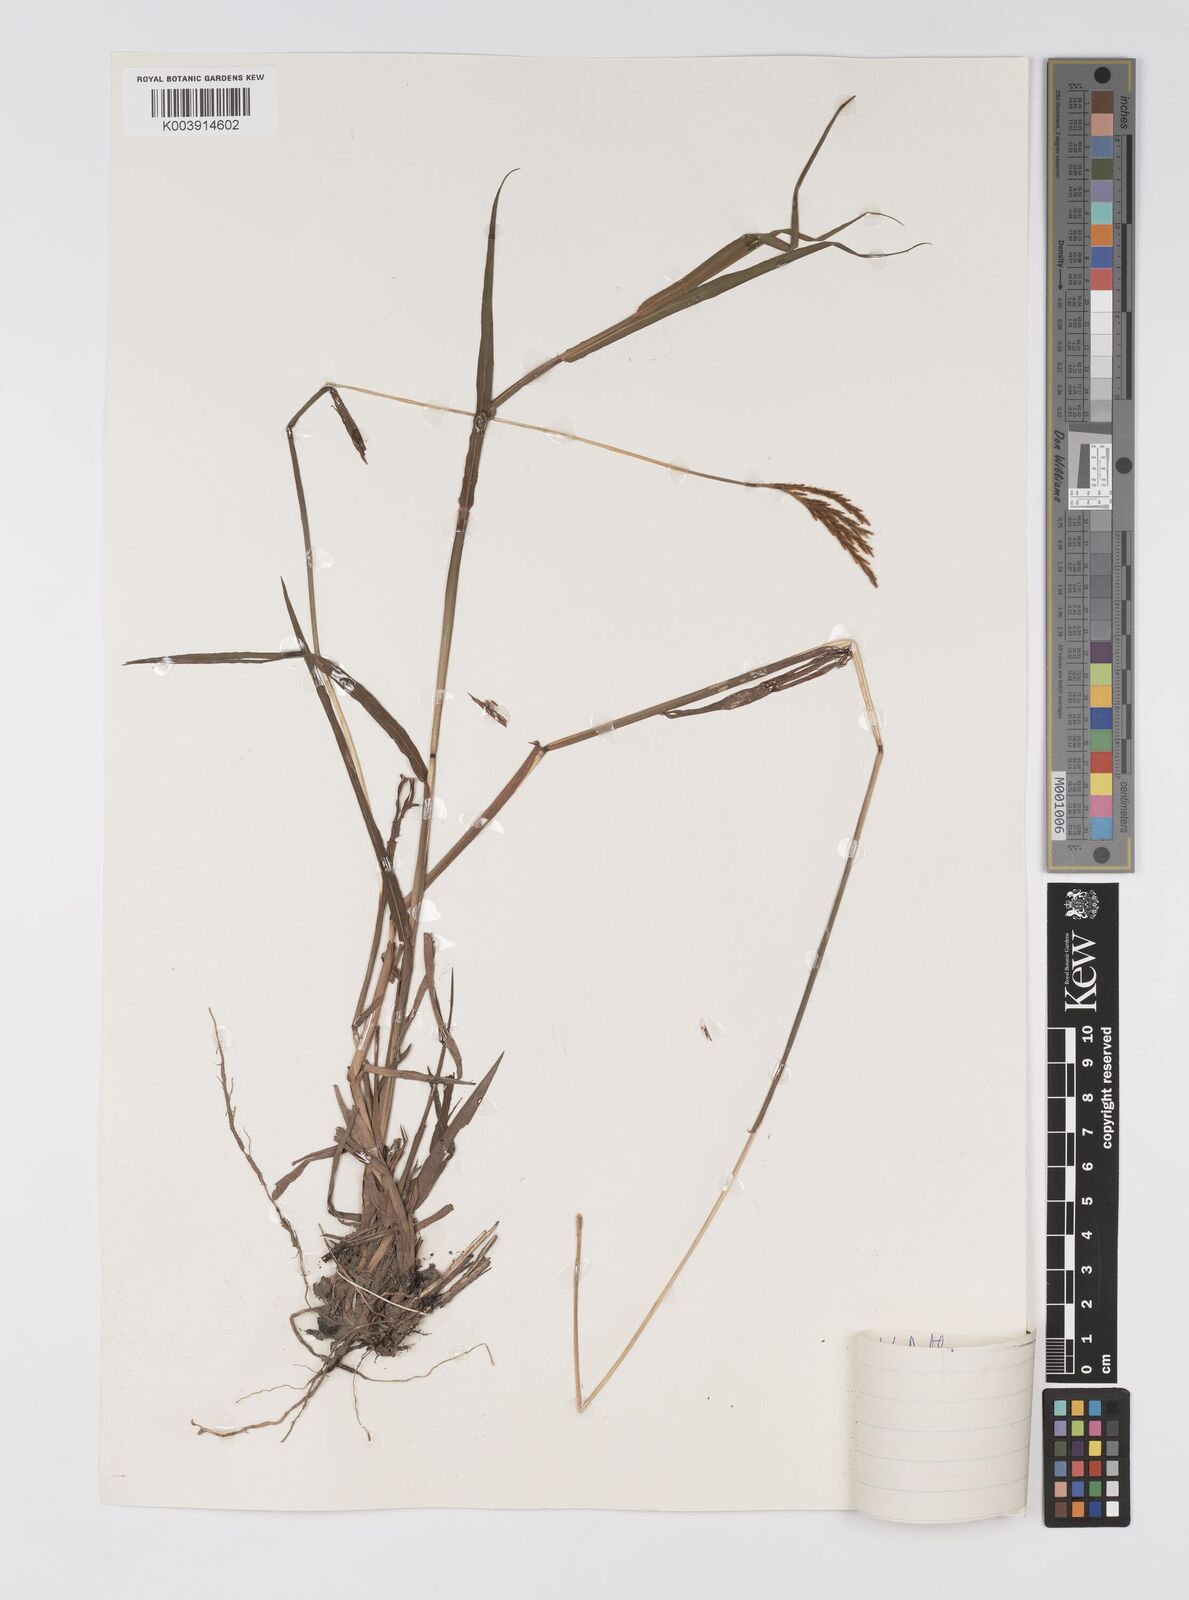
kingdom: Plantae
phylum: Tracheophyta
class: Liliopsida
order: Poales
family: Poaceae
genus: Eulalia
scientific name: Eulalia aurea
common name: Silky browntop
